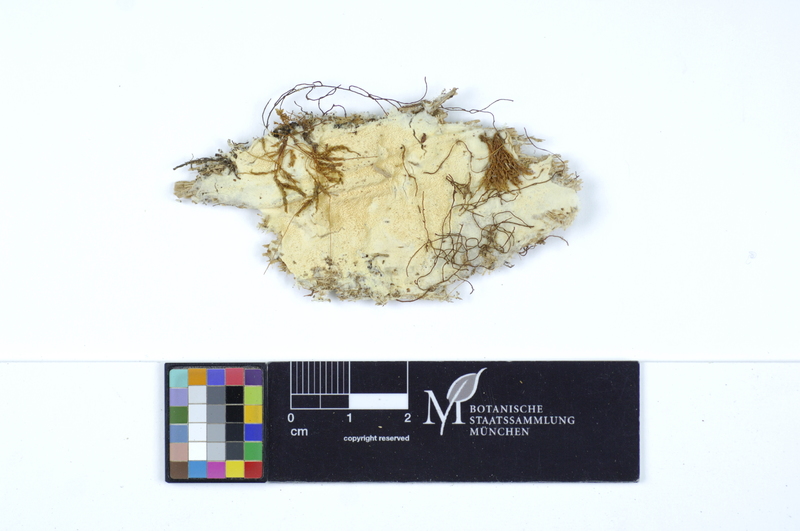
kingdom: Fungi
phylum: Basidiomycota
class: Agaricomycetes
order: Polyporales
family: Meruliaceae
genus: Ceriporiopsis
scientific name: Ceriporiopsis mucida
